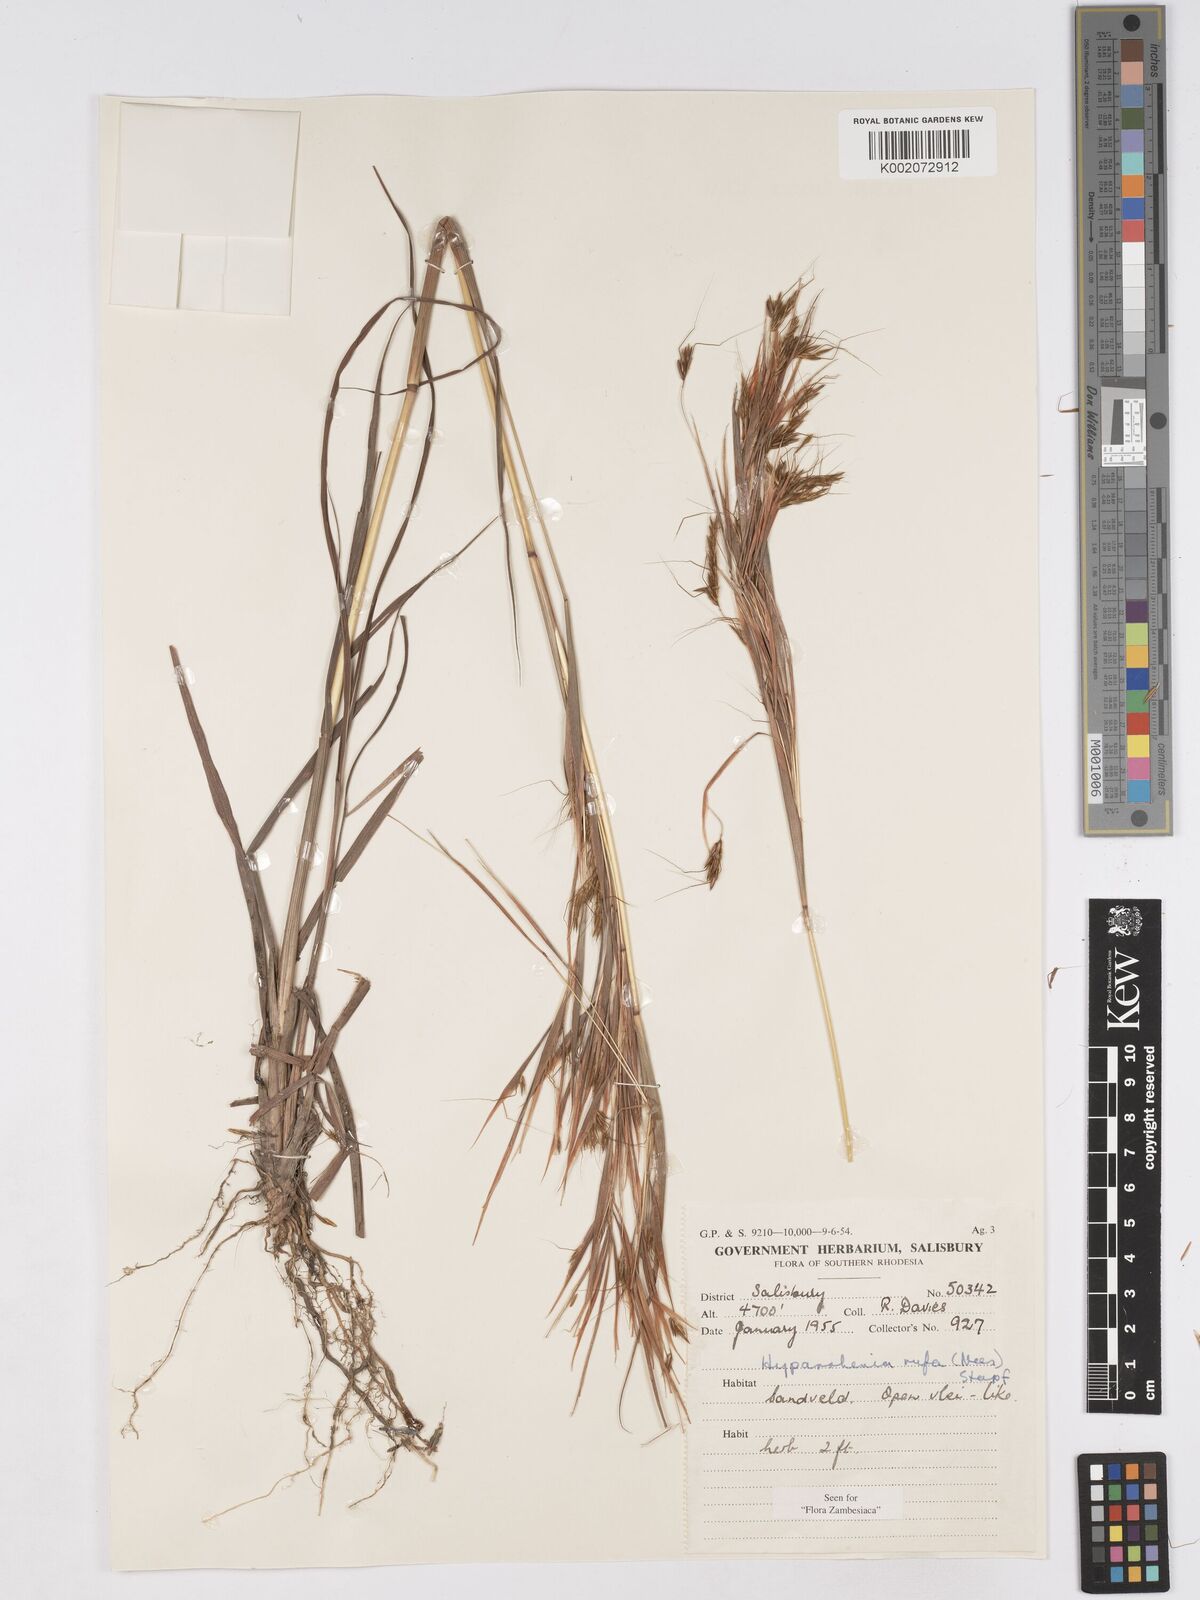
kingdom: Plantae
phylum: Tracheophyta
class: Liliopsida
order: Poales
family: Poaceae
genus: Hyparrhenia
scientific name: Hyparrhenia rufa
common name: Jaraguagrass
